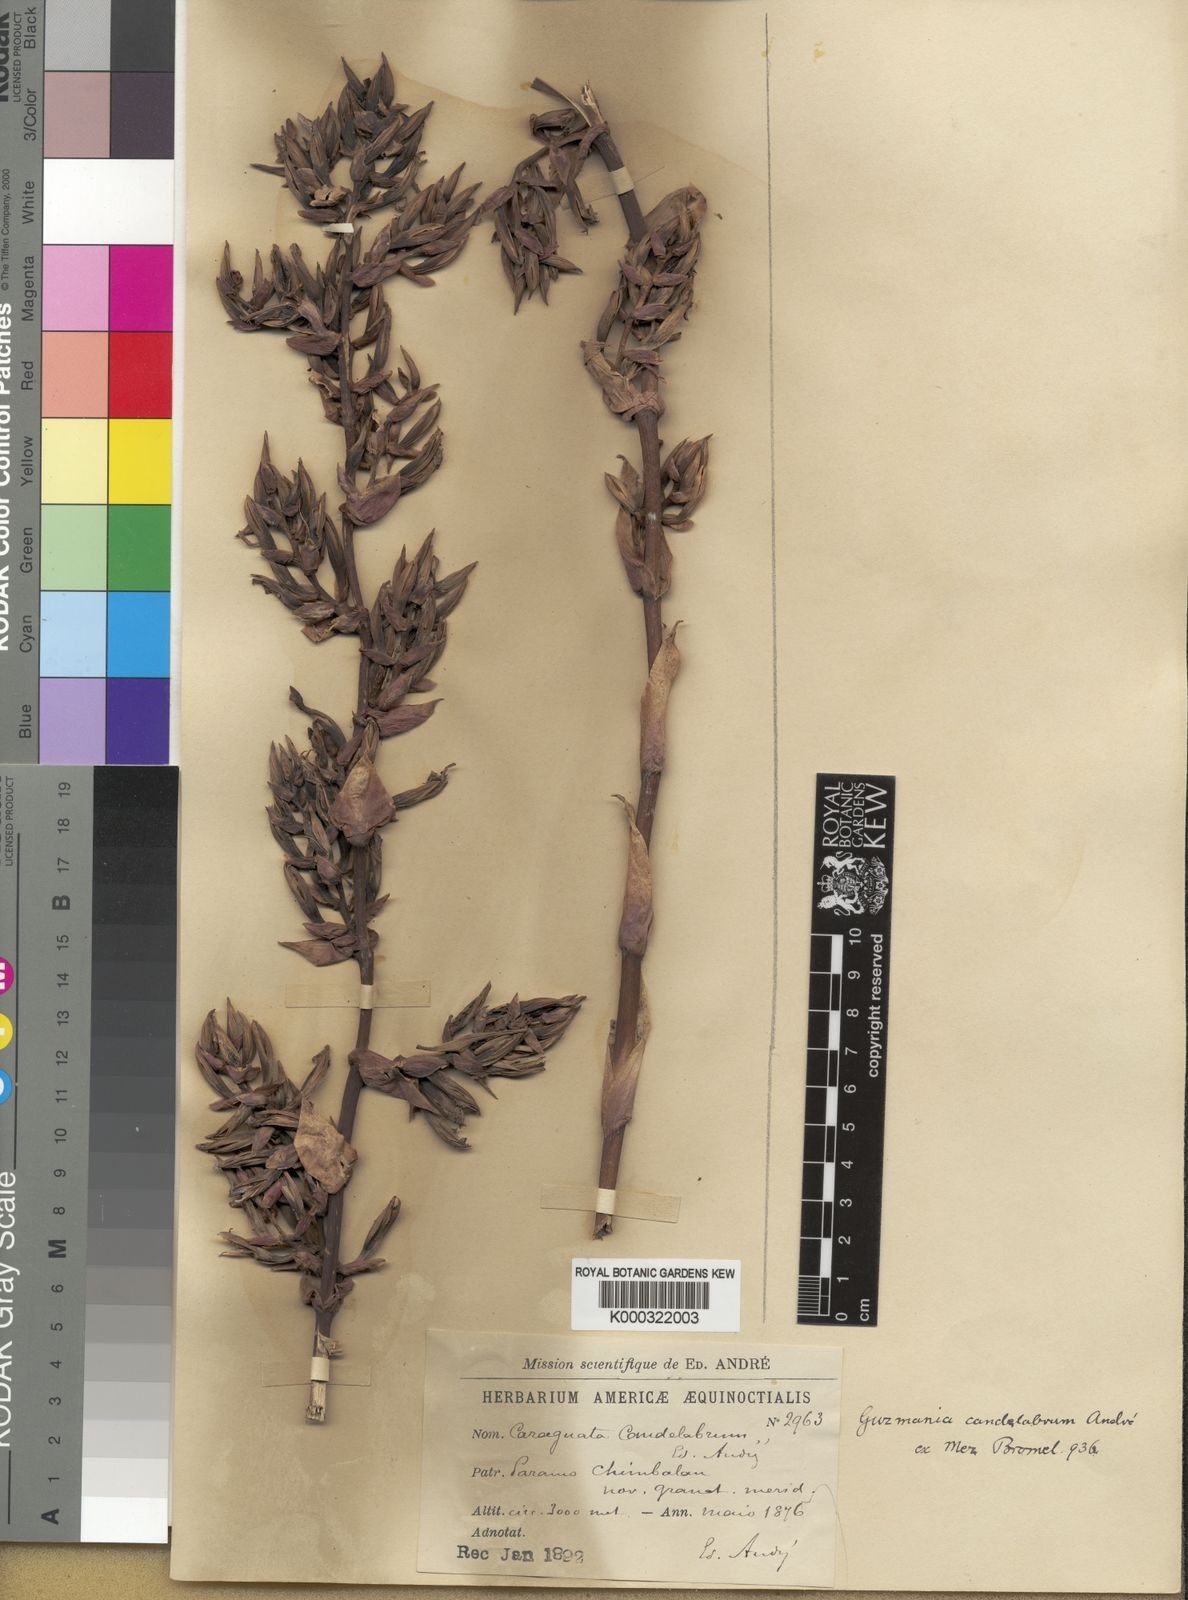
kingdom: Plantae
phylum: Tracheophyta
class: Liliopsida
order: Poales
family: Bromeliaceae
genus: Guzmania
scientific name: Guzmania candelabrum
